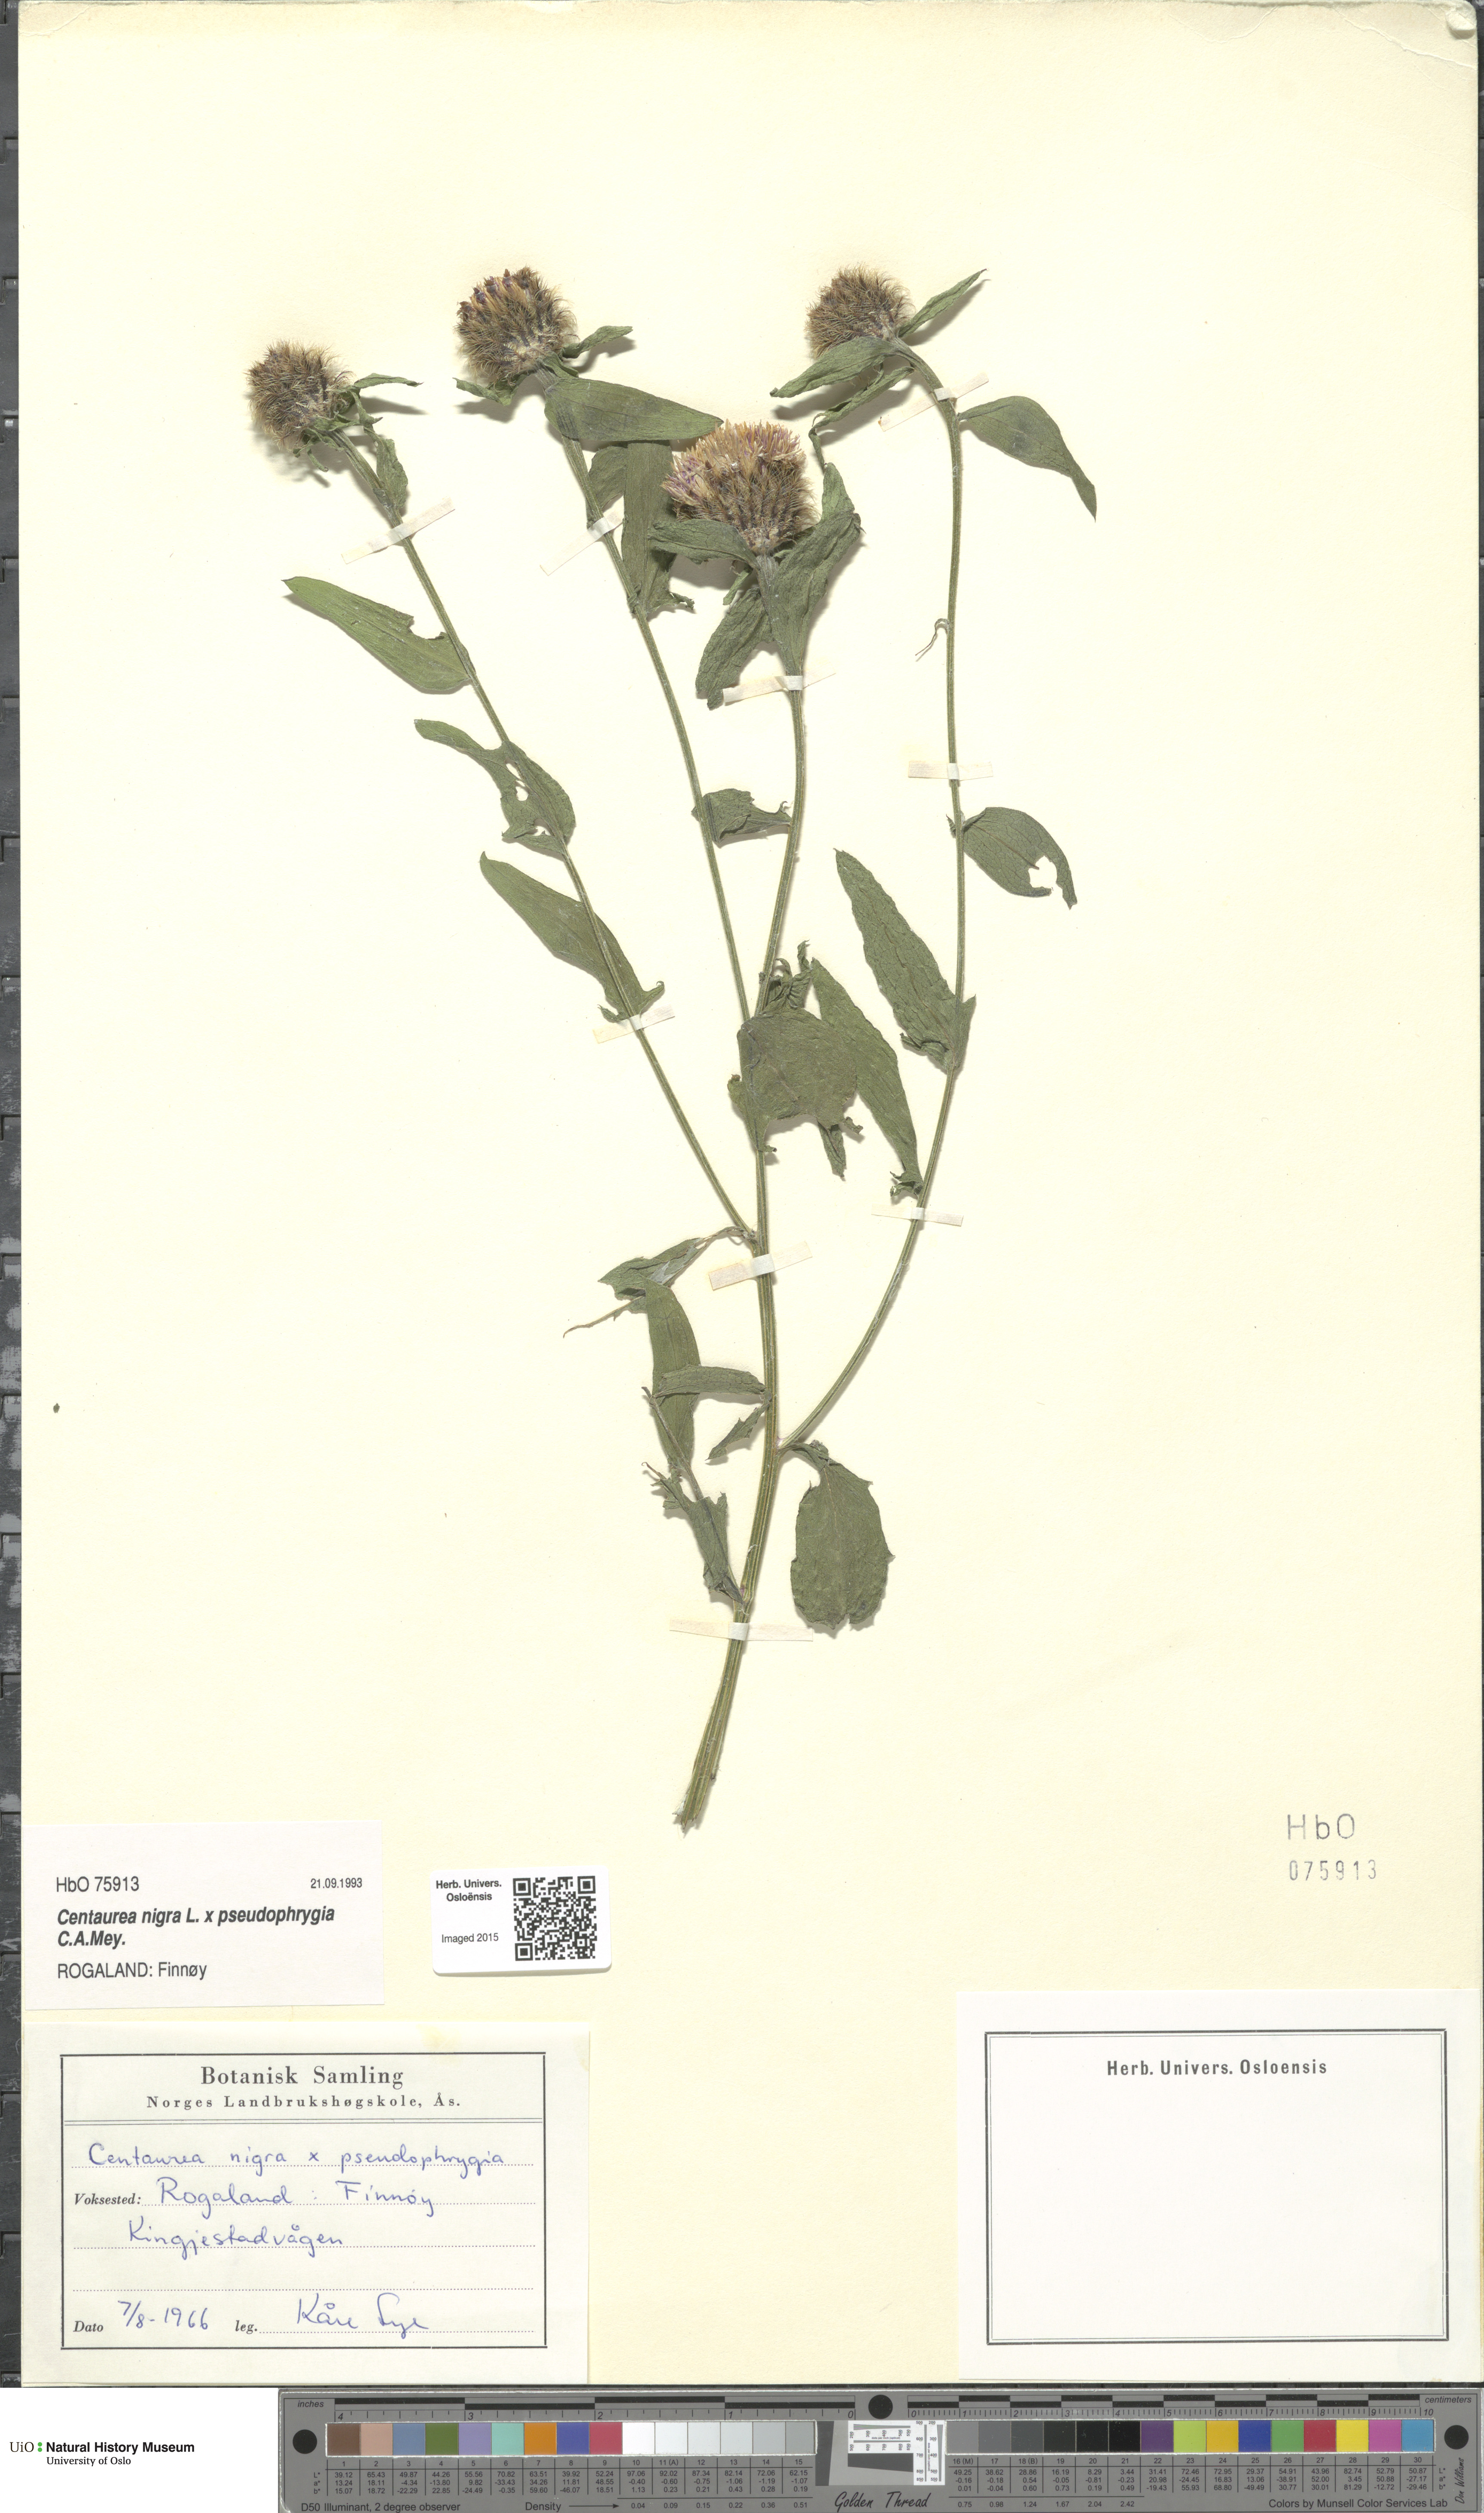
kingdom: Plantae
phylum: Tracheophyta
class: Magnoliopsida
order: Asterales
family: Asteraceae
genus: Centaurea
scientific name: Centaurea
